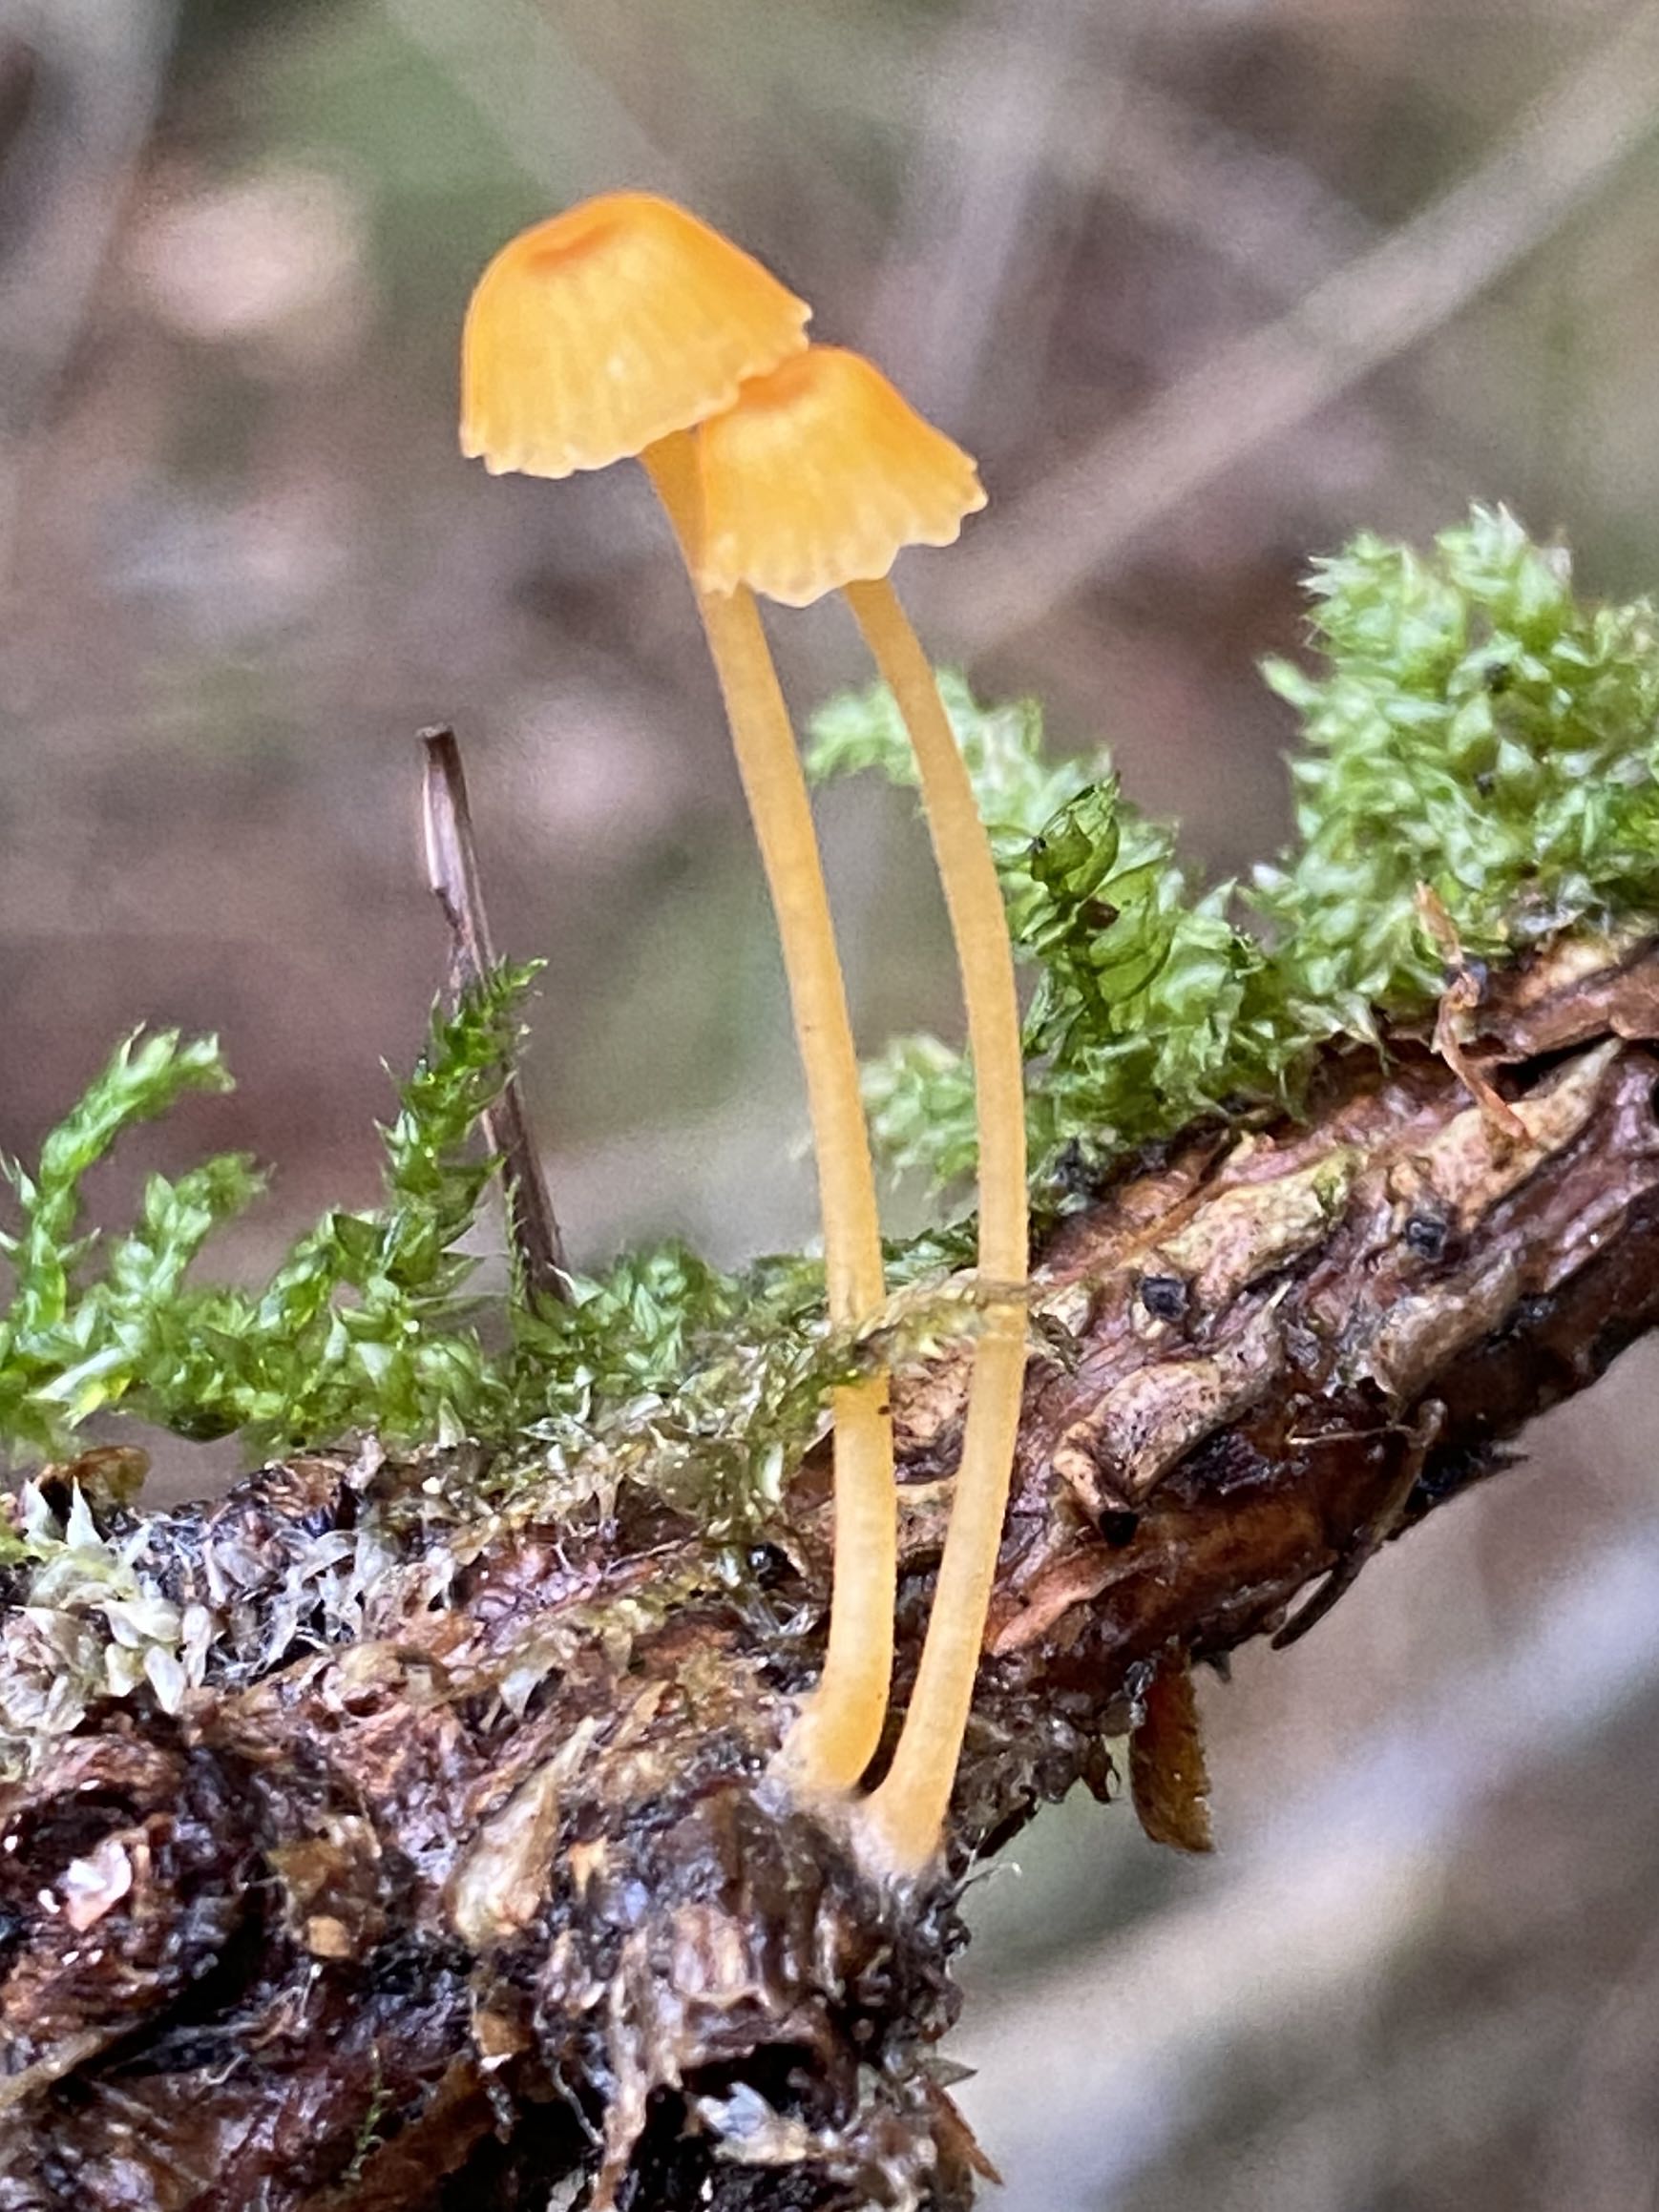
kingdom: Fungi
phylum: Basidiomycota
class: Agaricomycetes
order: Hymenochaetales
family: Rickenellaceae
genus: Rickenella
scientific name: Rickenella fibula
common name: orange mosnavlehat
